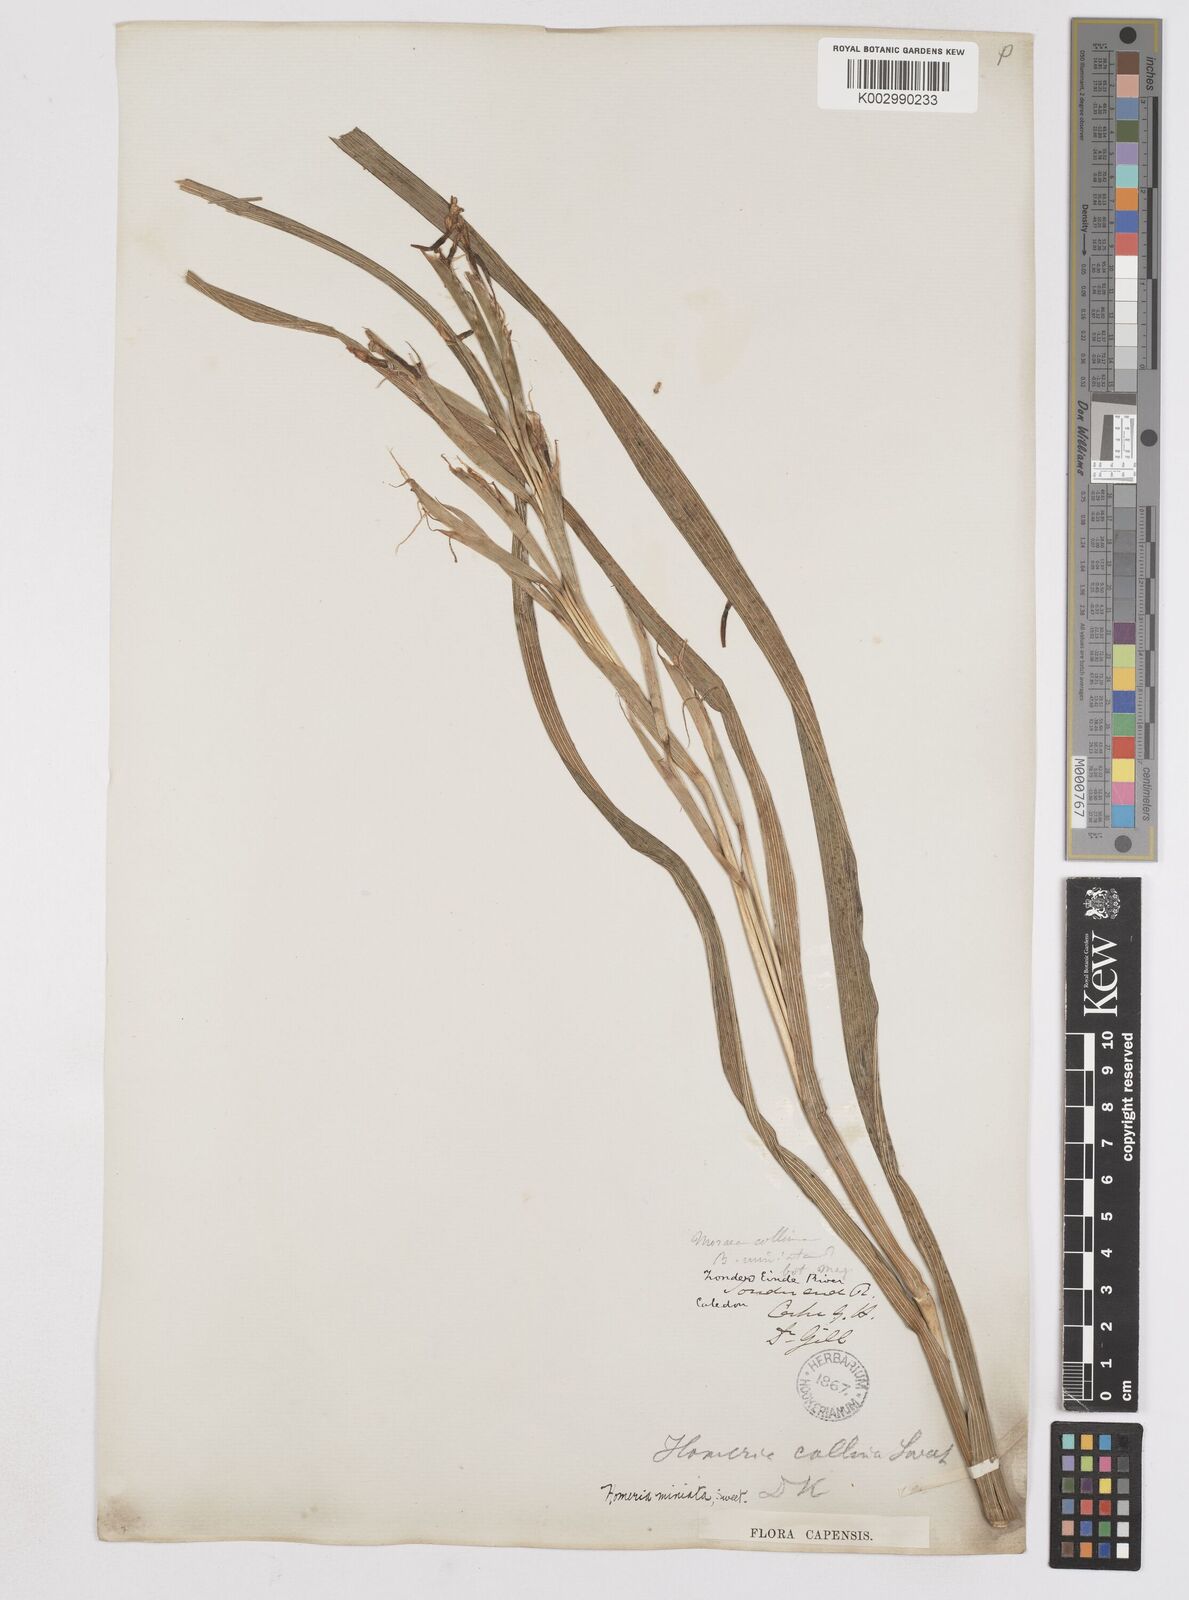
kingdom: Plantae
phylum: Tracheophyta
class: Liliopsida
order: Asparagales
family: Iridaceae
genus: Moraea
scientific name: Moraea miniata
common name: Two-leaf cape-tulip
